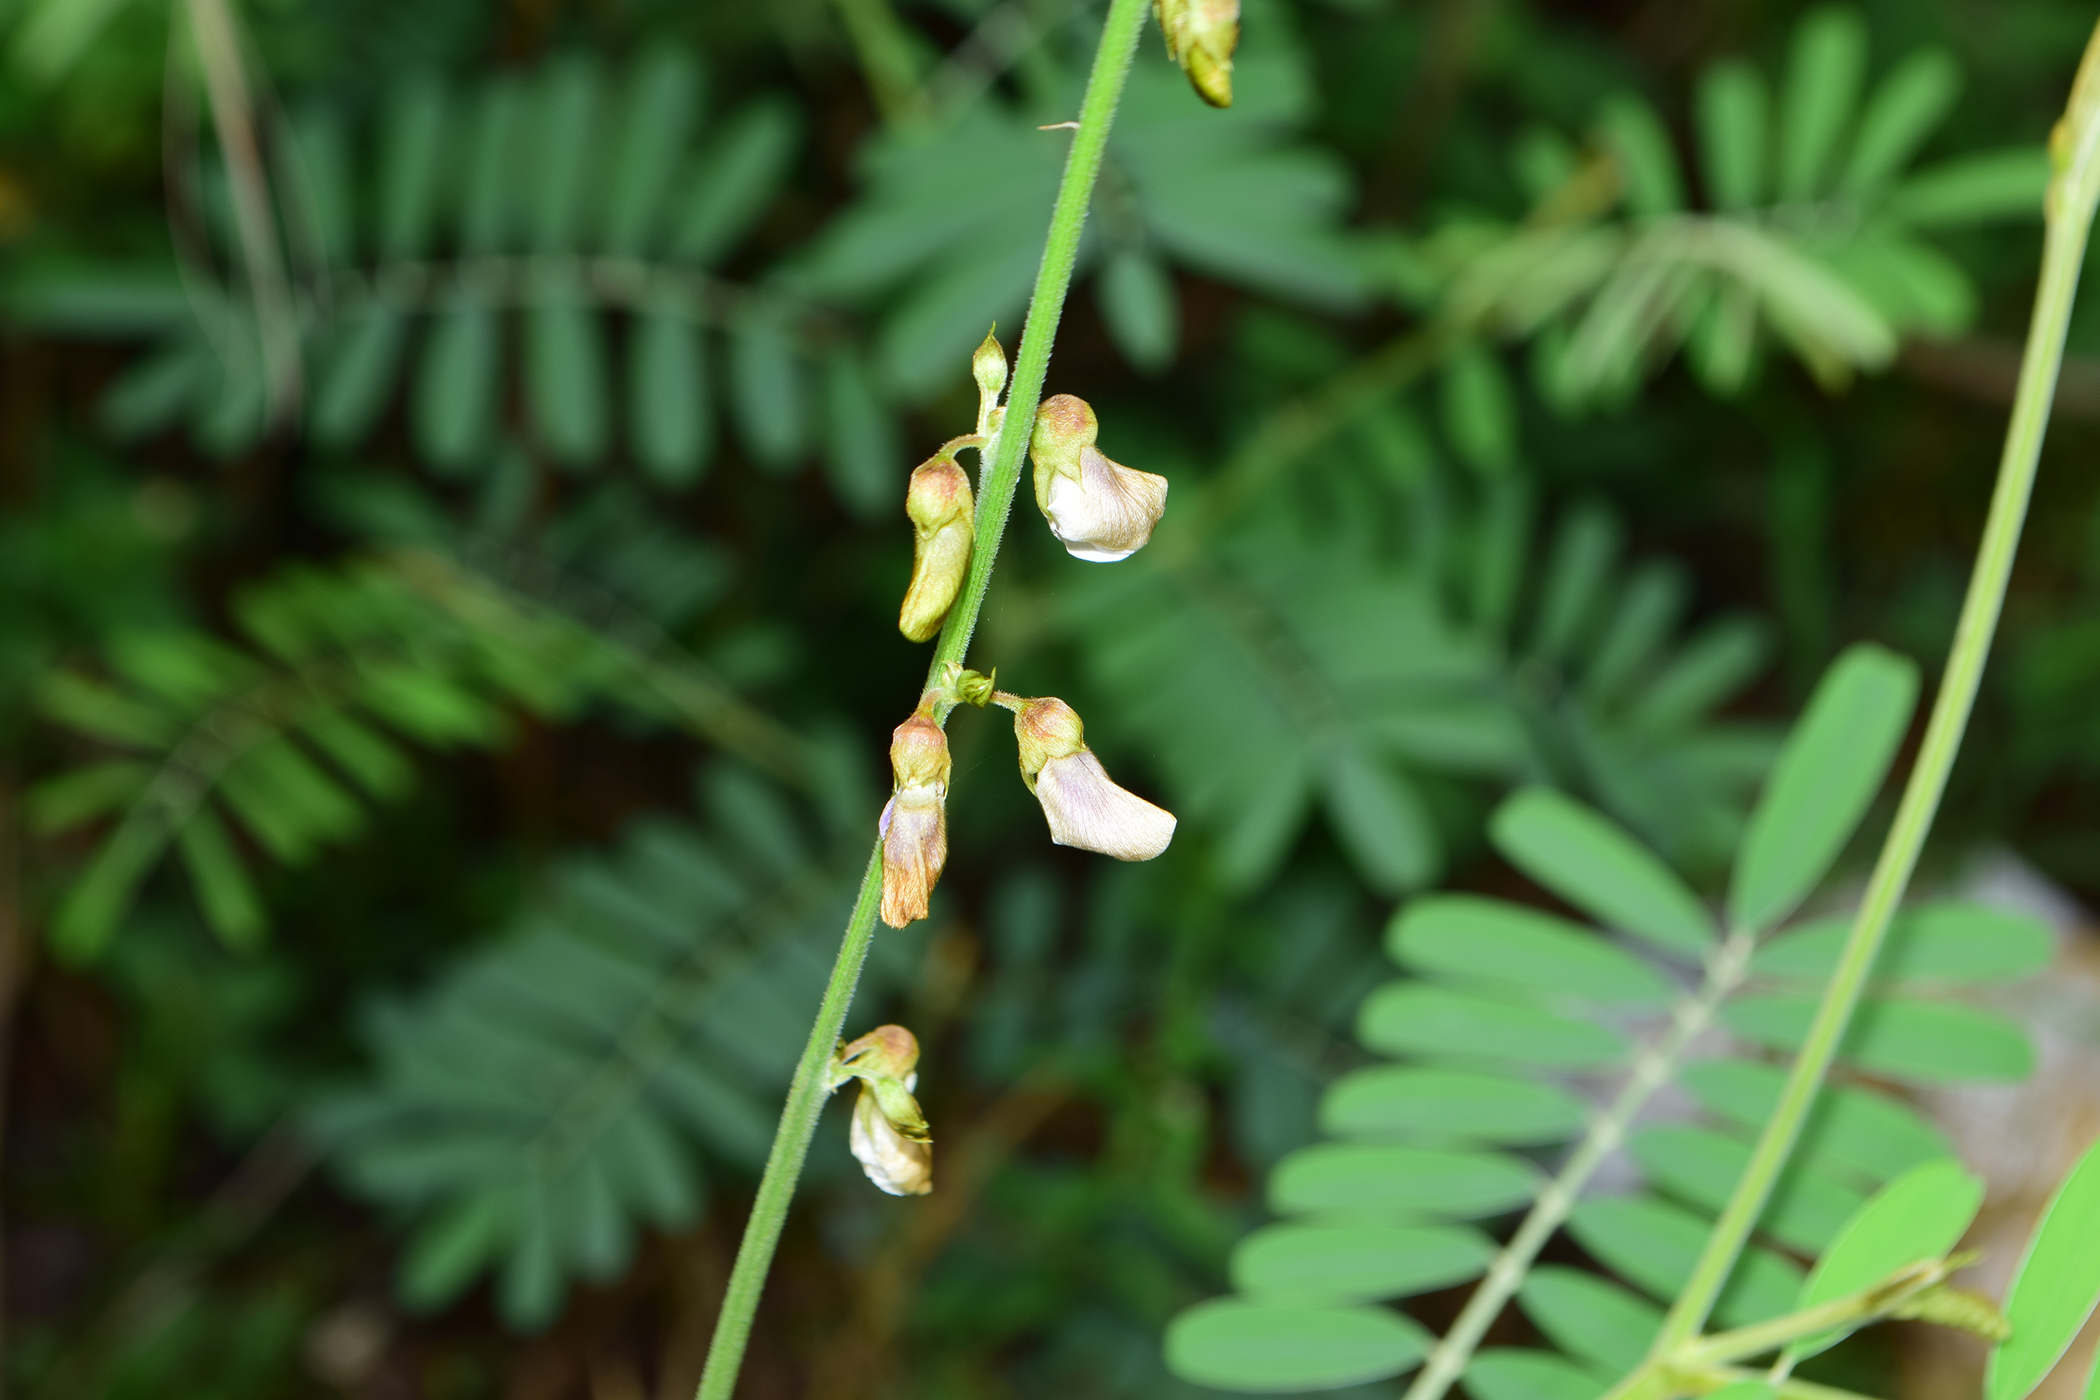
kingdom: Plantae
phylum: Tracheophyta
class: Magnoliopsida
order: Fabales
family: Fabaceae
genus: Tephrosia
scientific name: Tephrosia noctiflora
